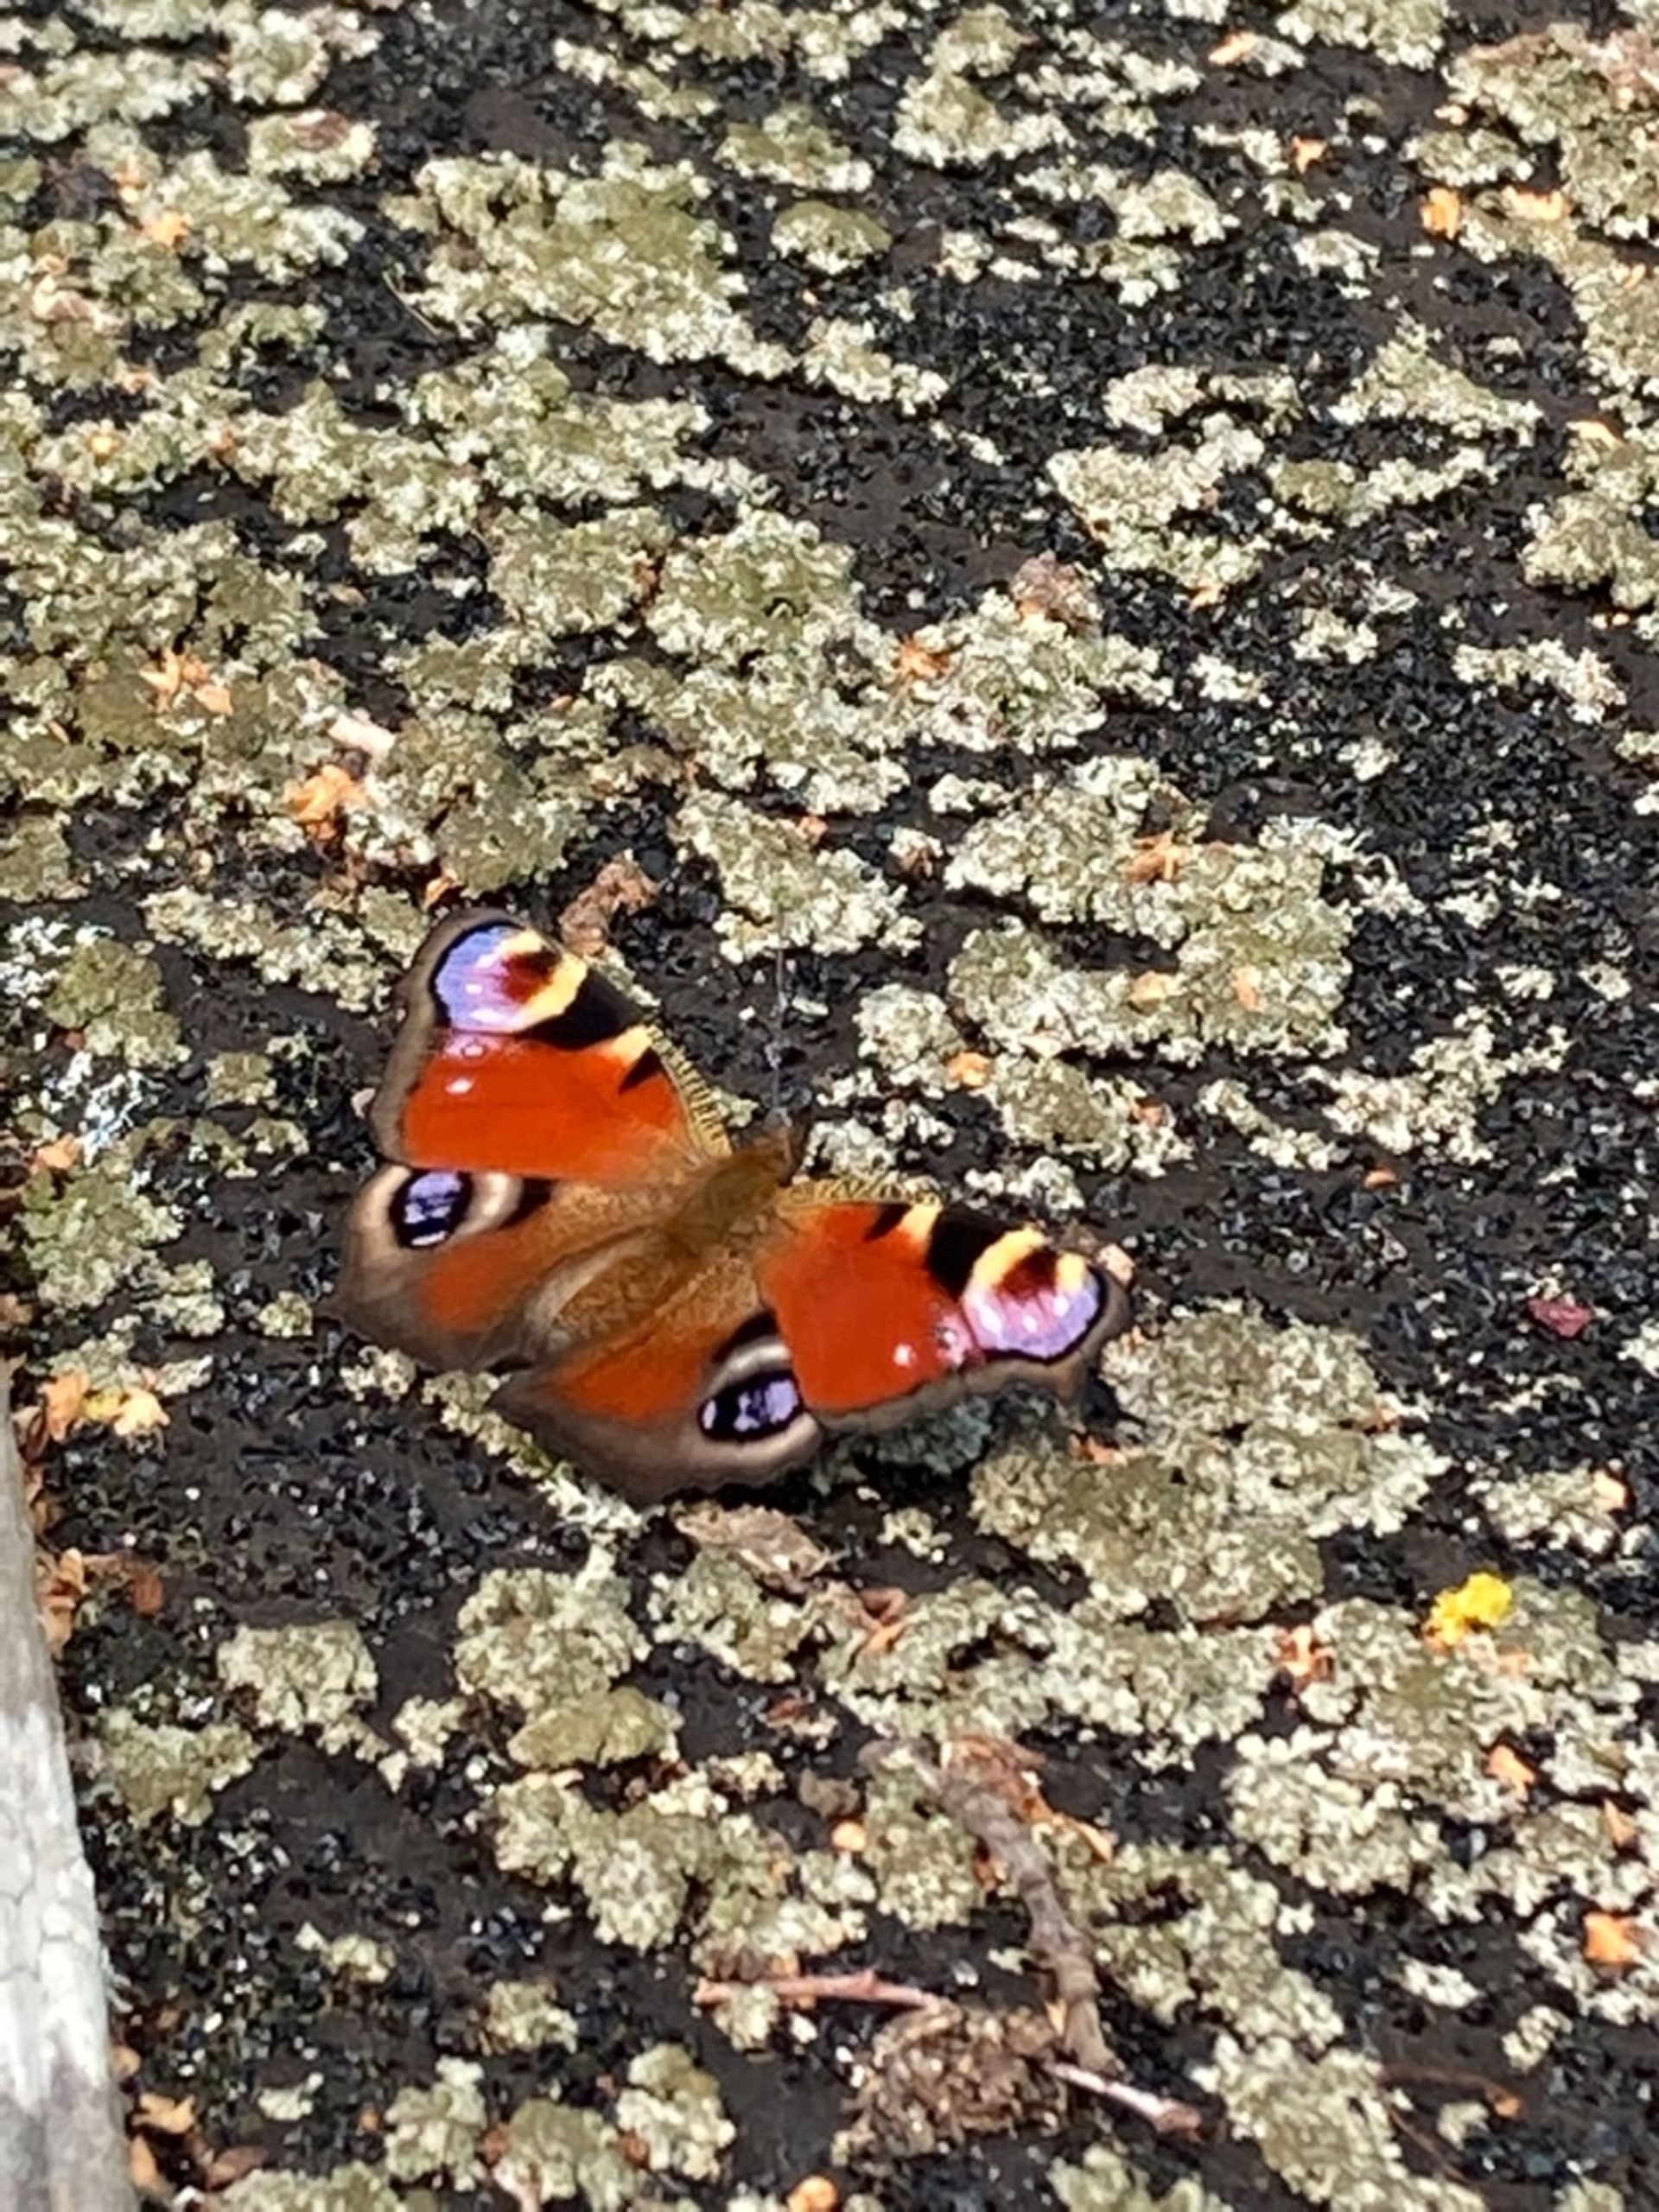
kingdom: Animalia
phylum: Arthropoda
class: Insecta
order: Lepidoptera
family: Nymphalidae
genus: Aglais
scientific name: Aglais io
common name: Dagpåfugleøje
